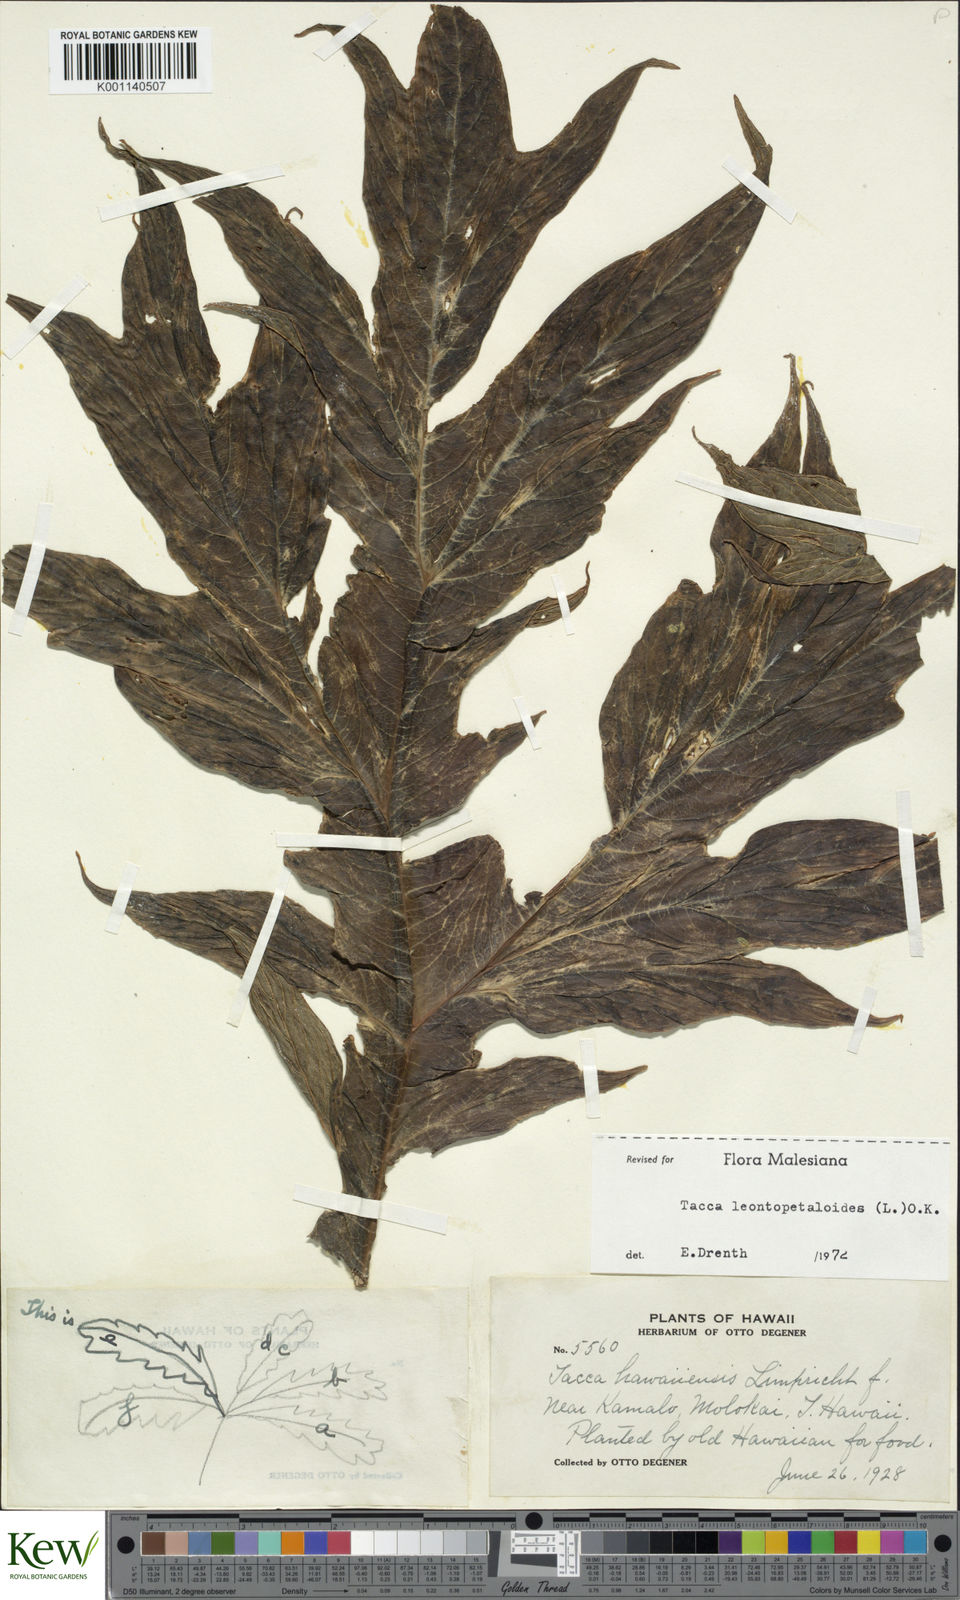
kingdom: Plantae
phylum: Tracheophyta
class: Liliopsida
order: Dioscoreales
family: Dioscoreaceae
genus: Tacca
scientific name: Tacca leontopetaloides
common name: Arrowroot
